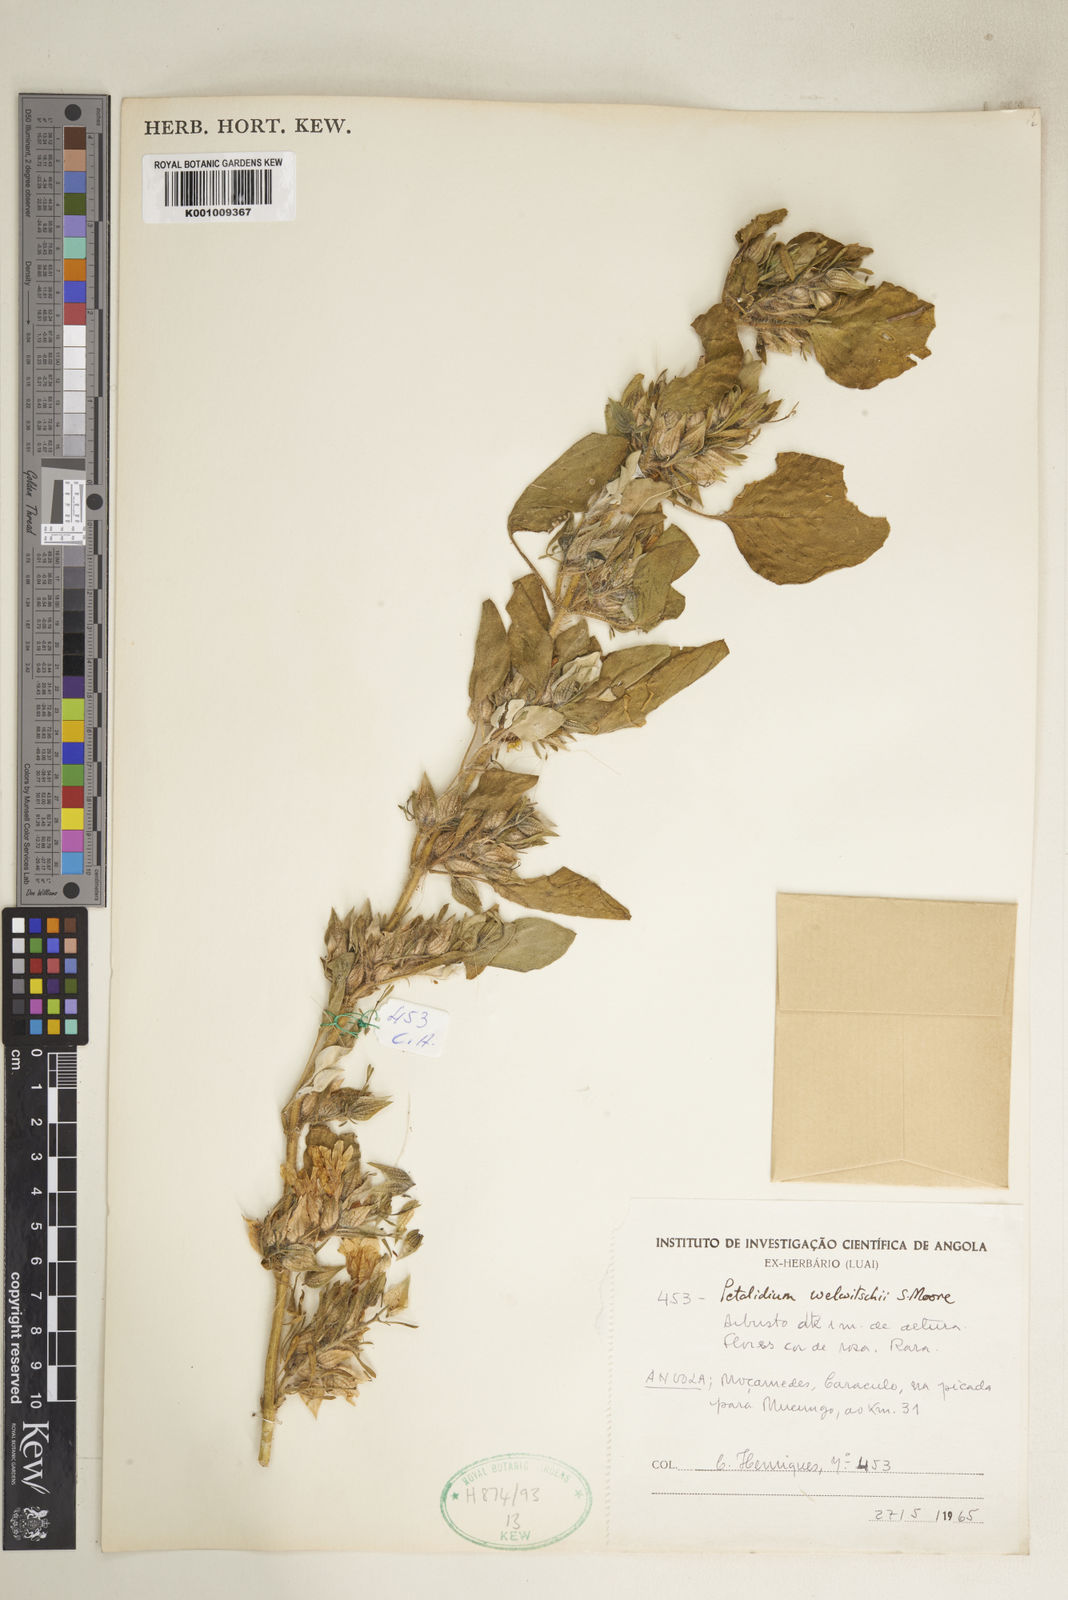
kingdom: Plantae
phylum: Tracheophyta
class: Magnoliopsida
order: Lamiales
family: Acanthaceae
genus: Petalidium
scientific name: Petalidium welwitschii
